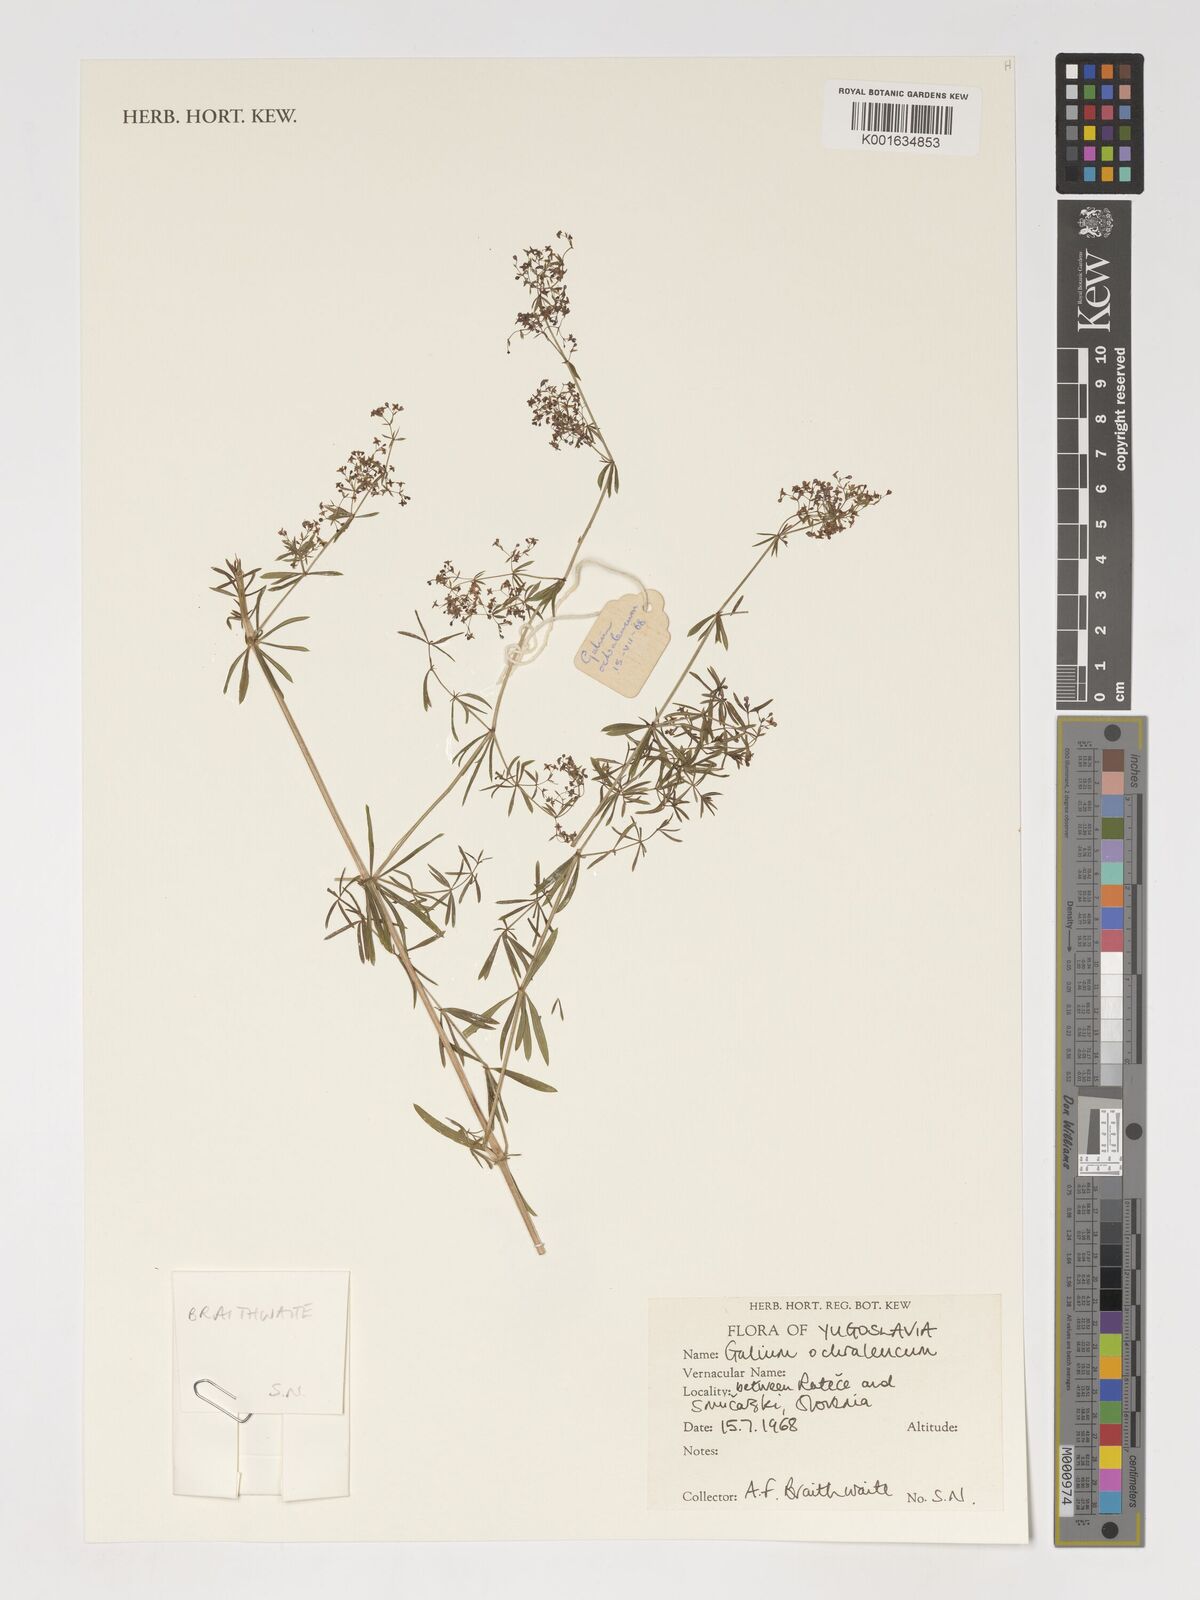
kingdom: Plantae
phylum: Tracheophyta
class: Magnoliopsida
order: Gentianales
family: Rubiaceae
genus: Galium
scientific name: Galium
